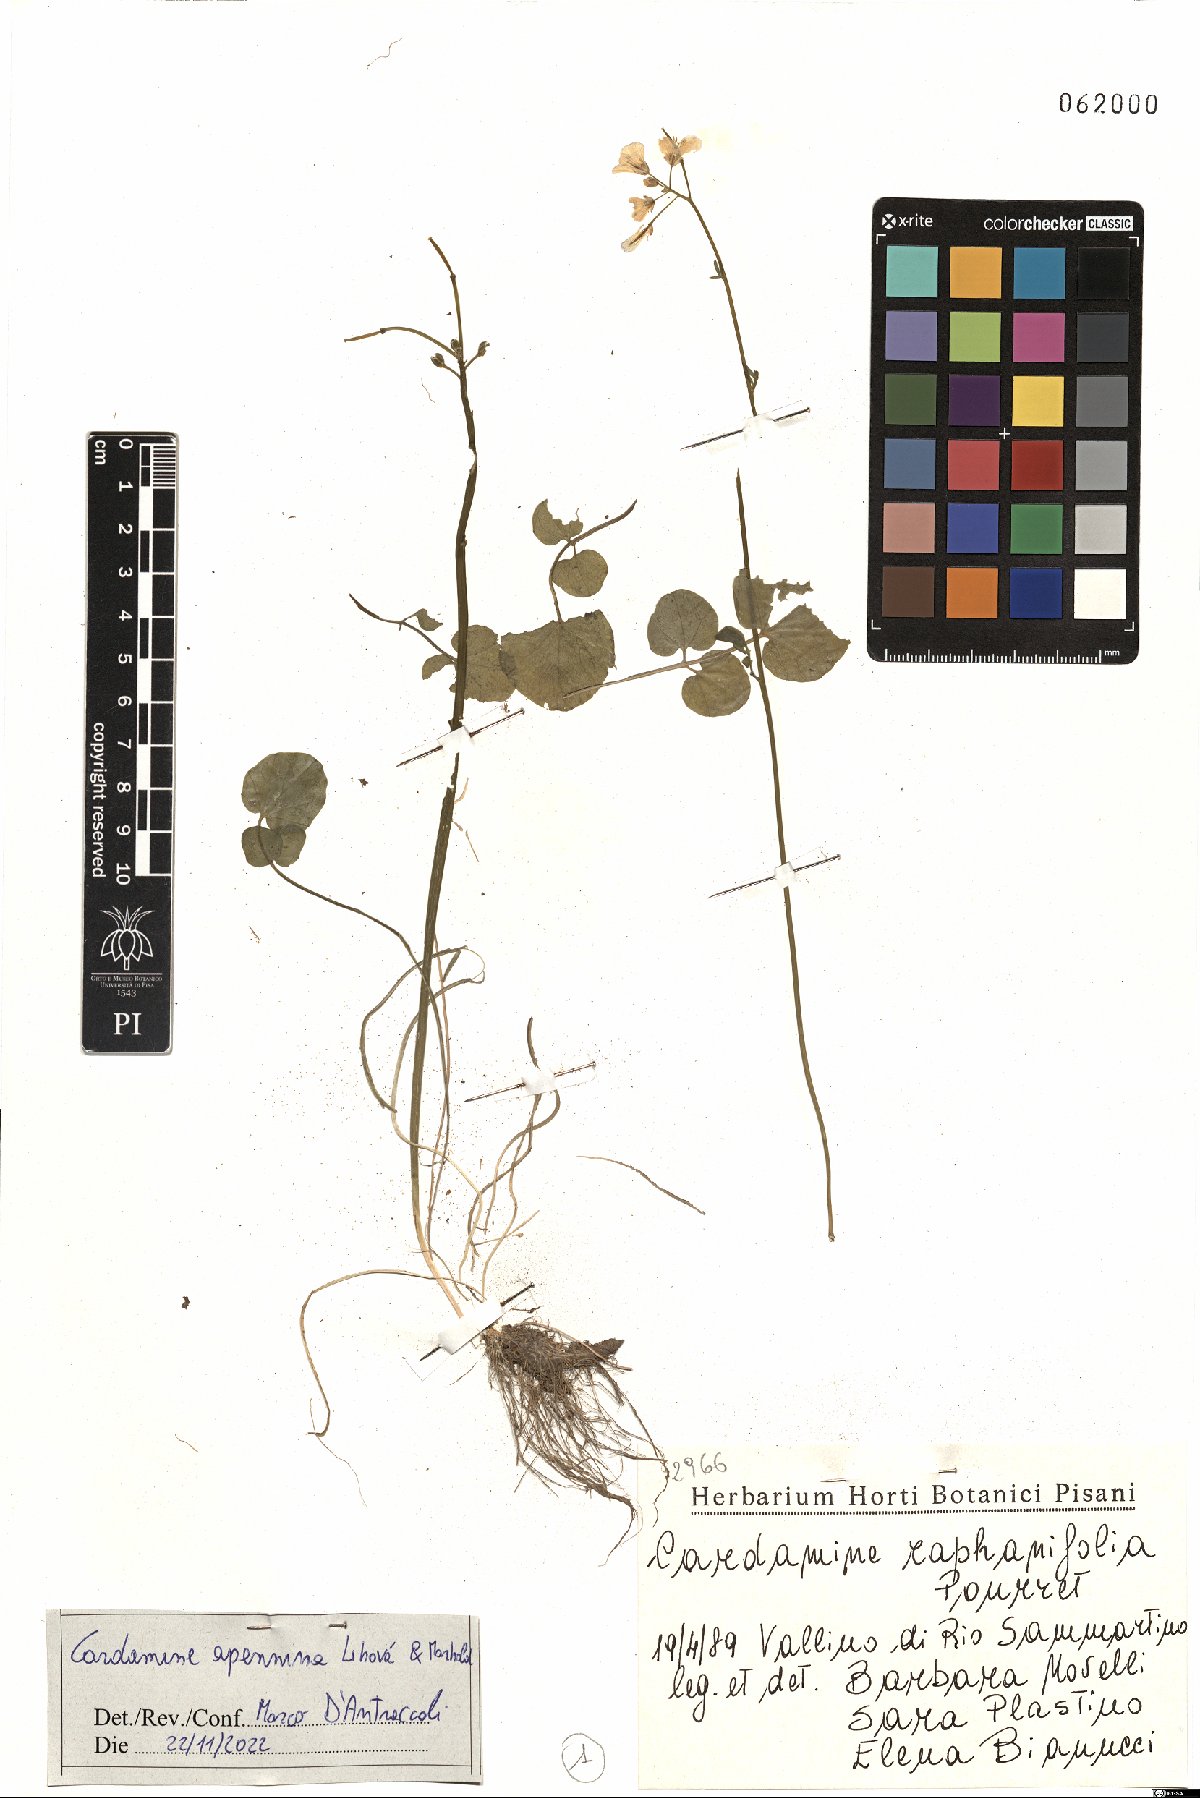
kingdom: Plantae
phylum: Tracheophyta
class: Magnoliopsida
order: Brassicales
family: Brassicaceae
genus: Cardamine
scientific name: Cardamine apennina
